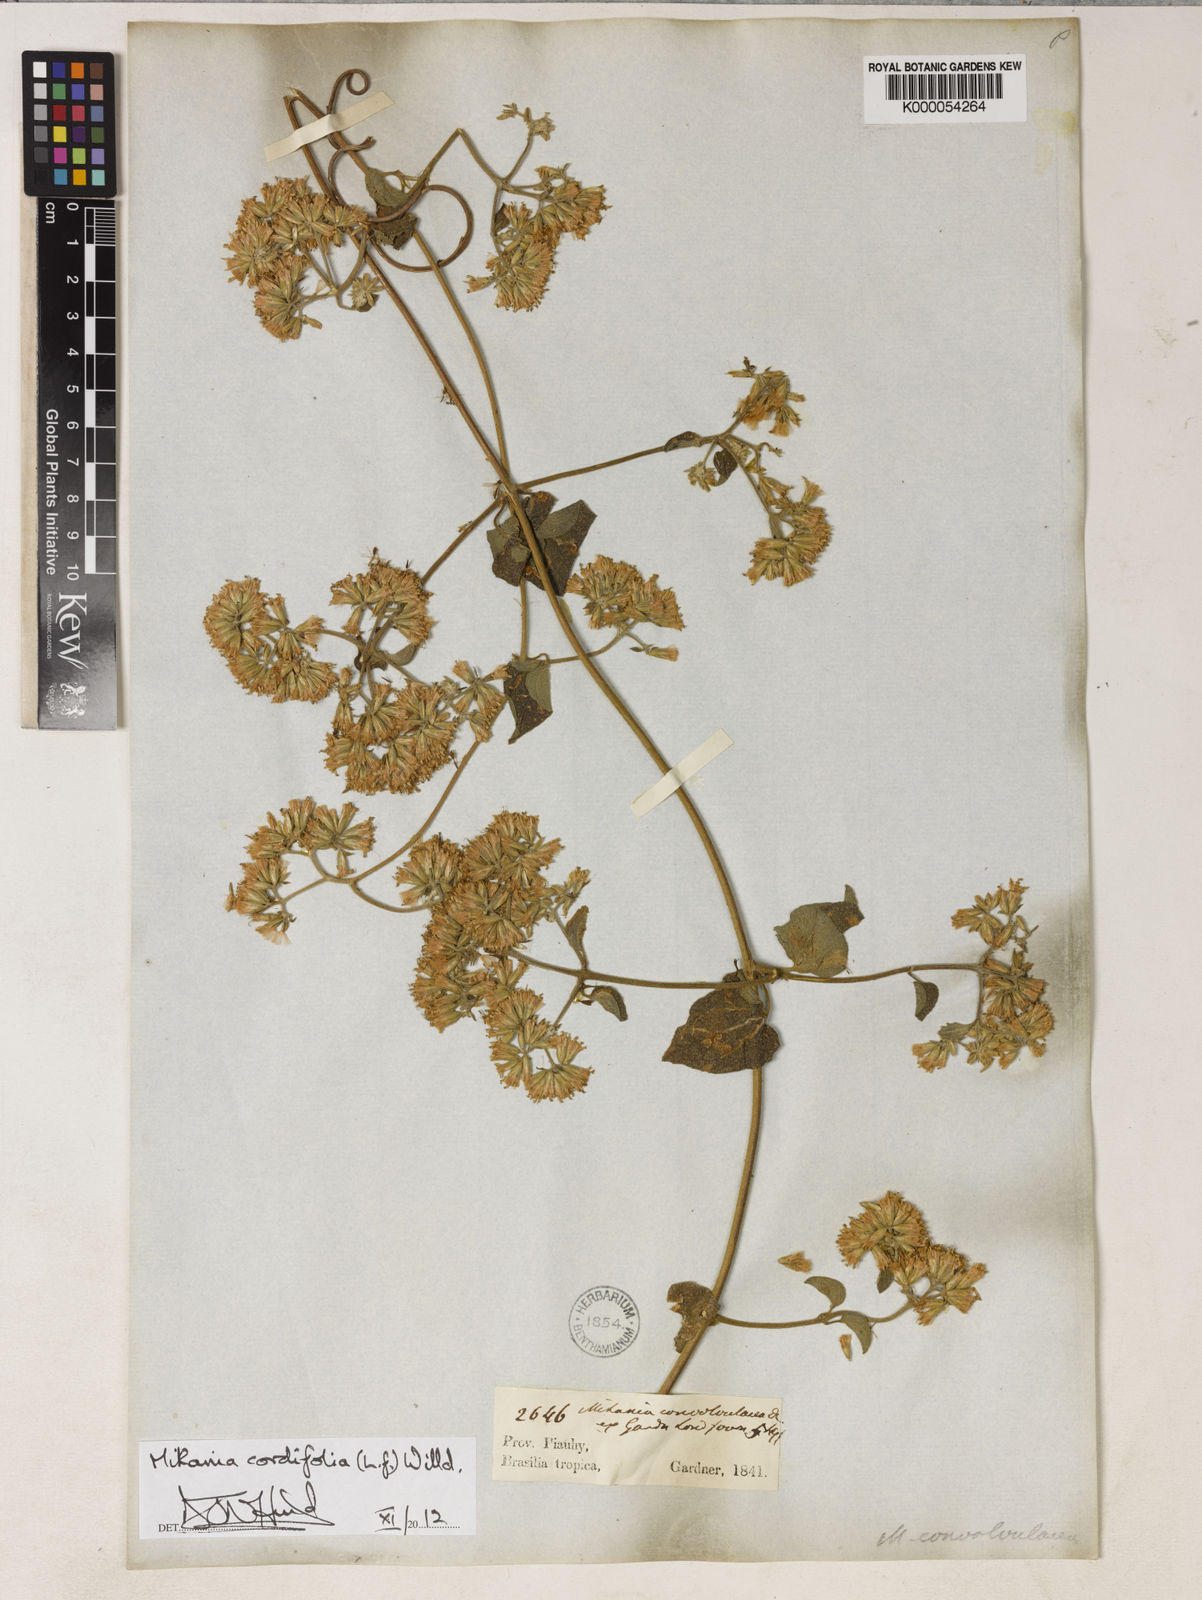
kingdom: Plantae
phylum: Tracheophyta
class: Magnoliopsida
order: Asterales
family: Asteraceae
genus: Mikania
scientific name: Mikania cordifolia
